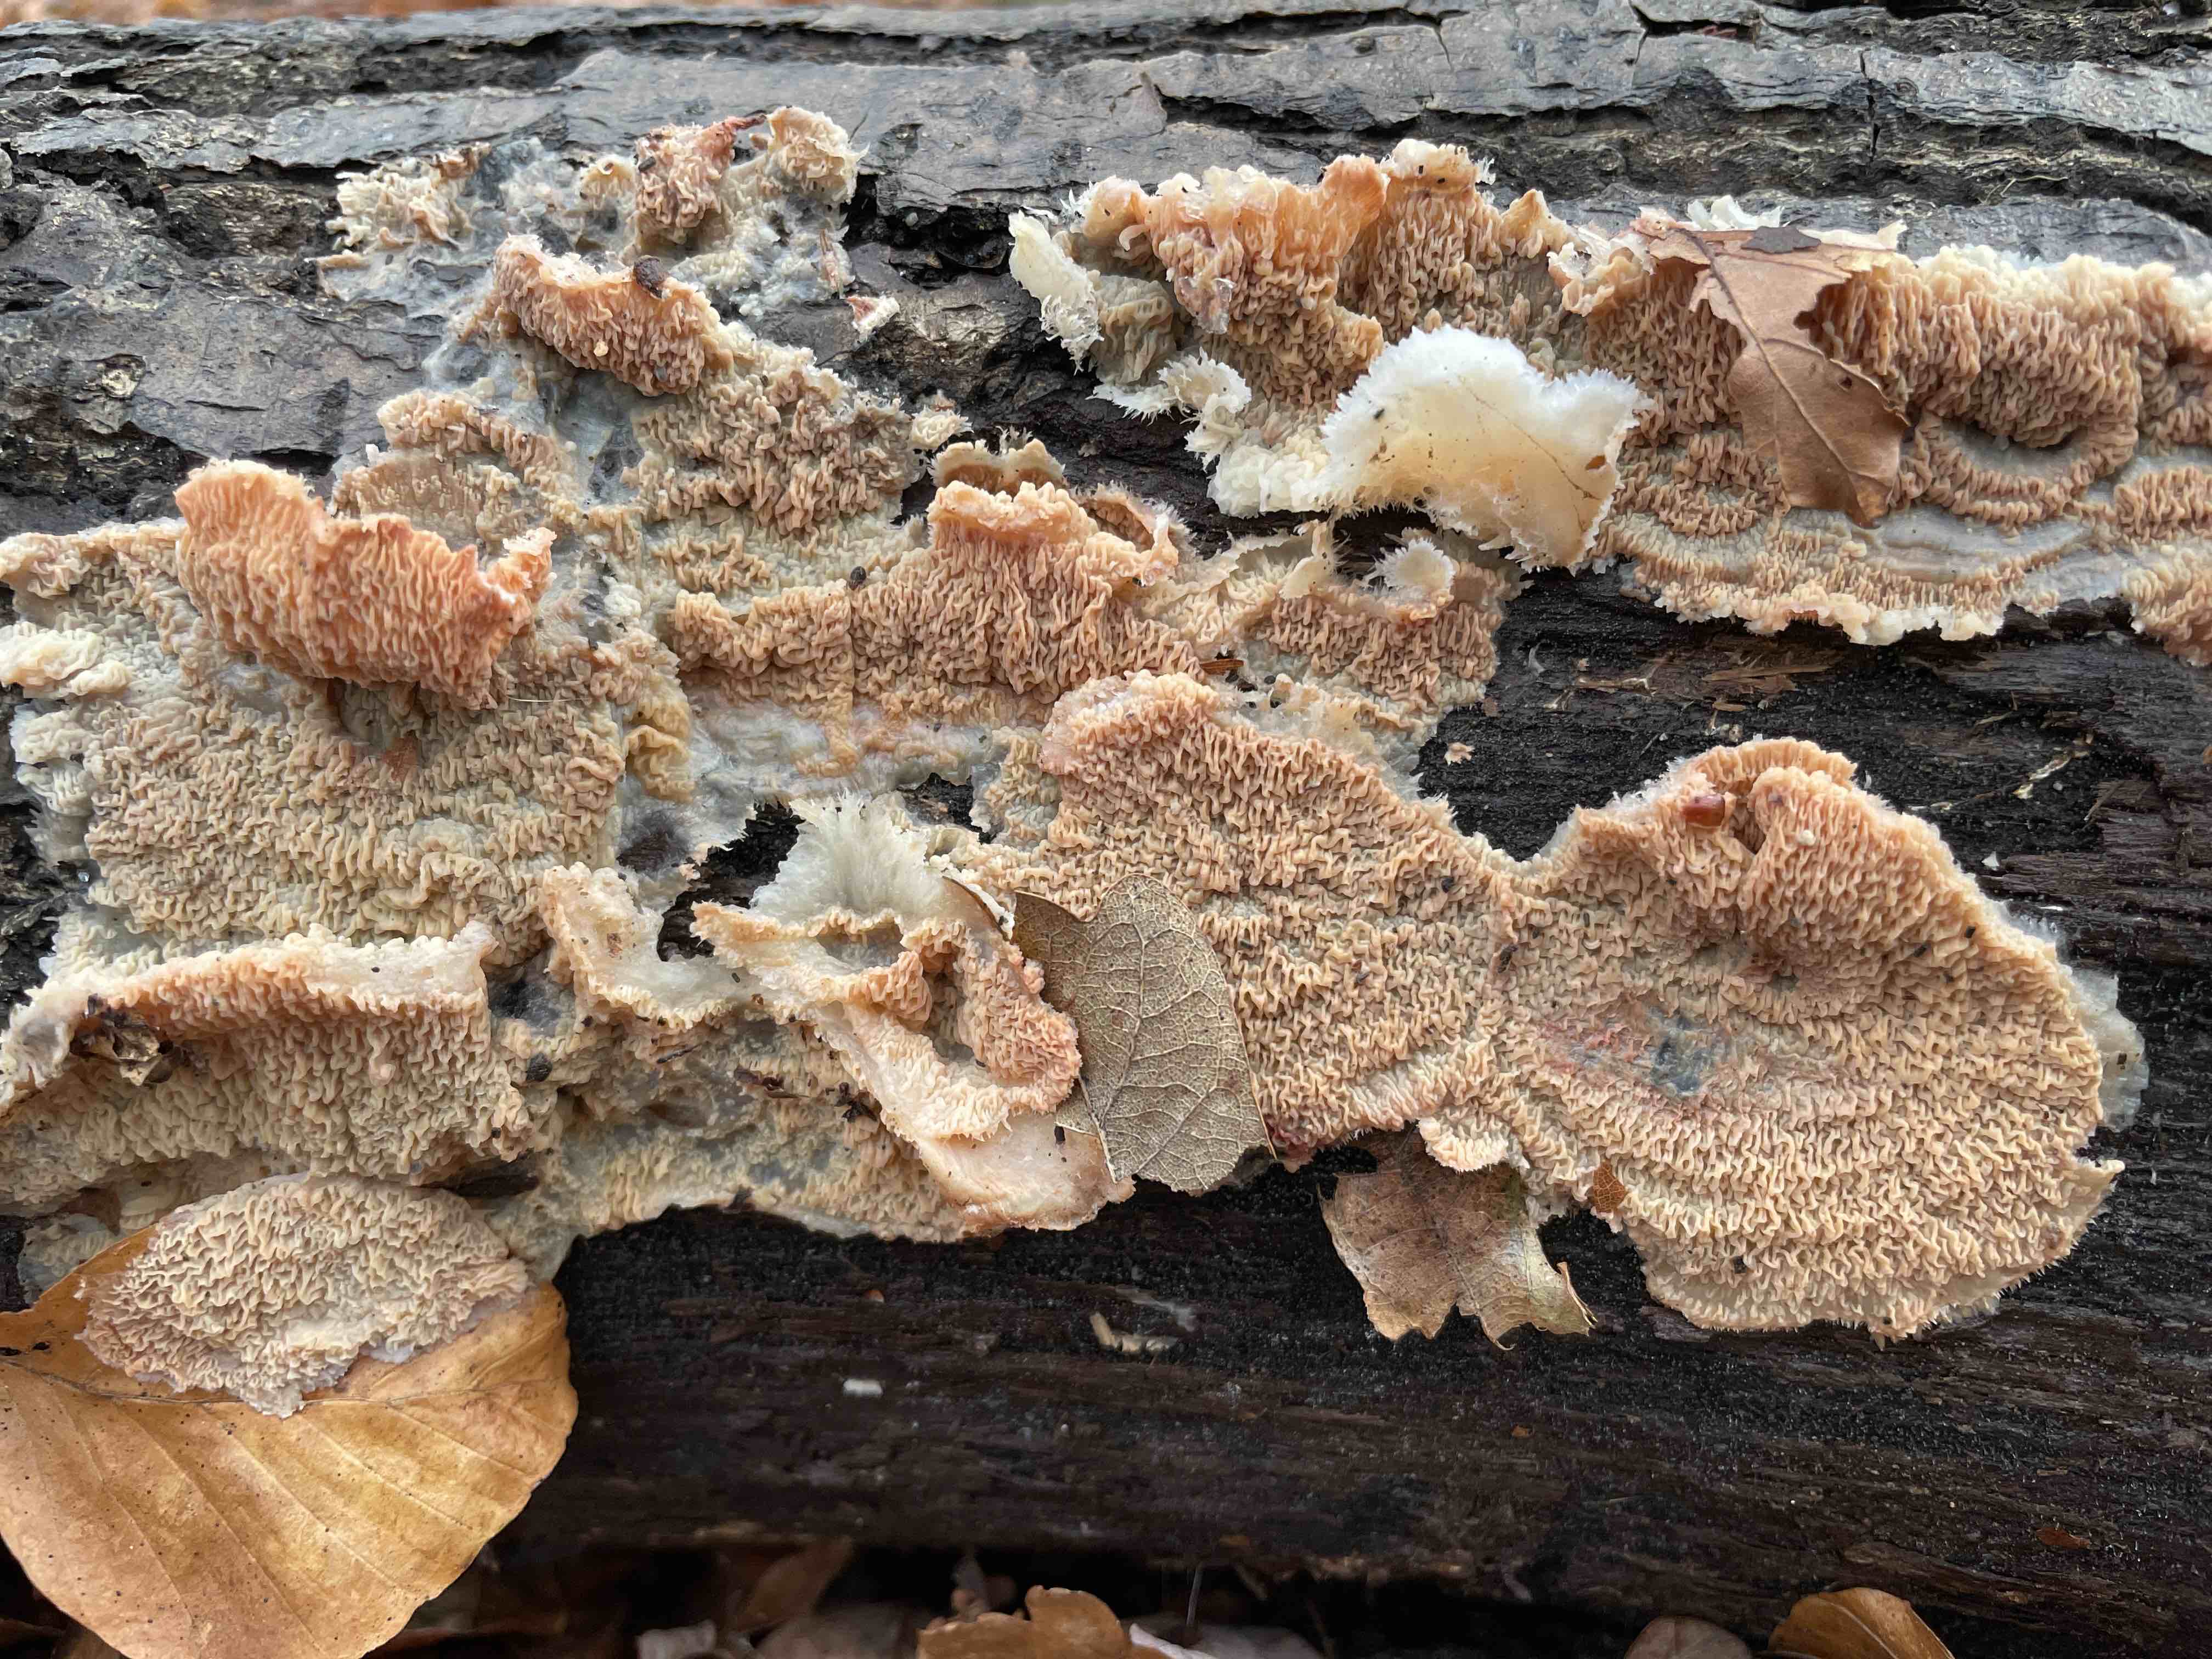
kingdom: Fungi
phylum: Basidiomycota
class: Agaricomycetes
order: Polyporales
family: Meruliaceae
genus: Phlebia
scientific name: Phlebia tremellosa
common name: bævrende åresvamp
